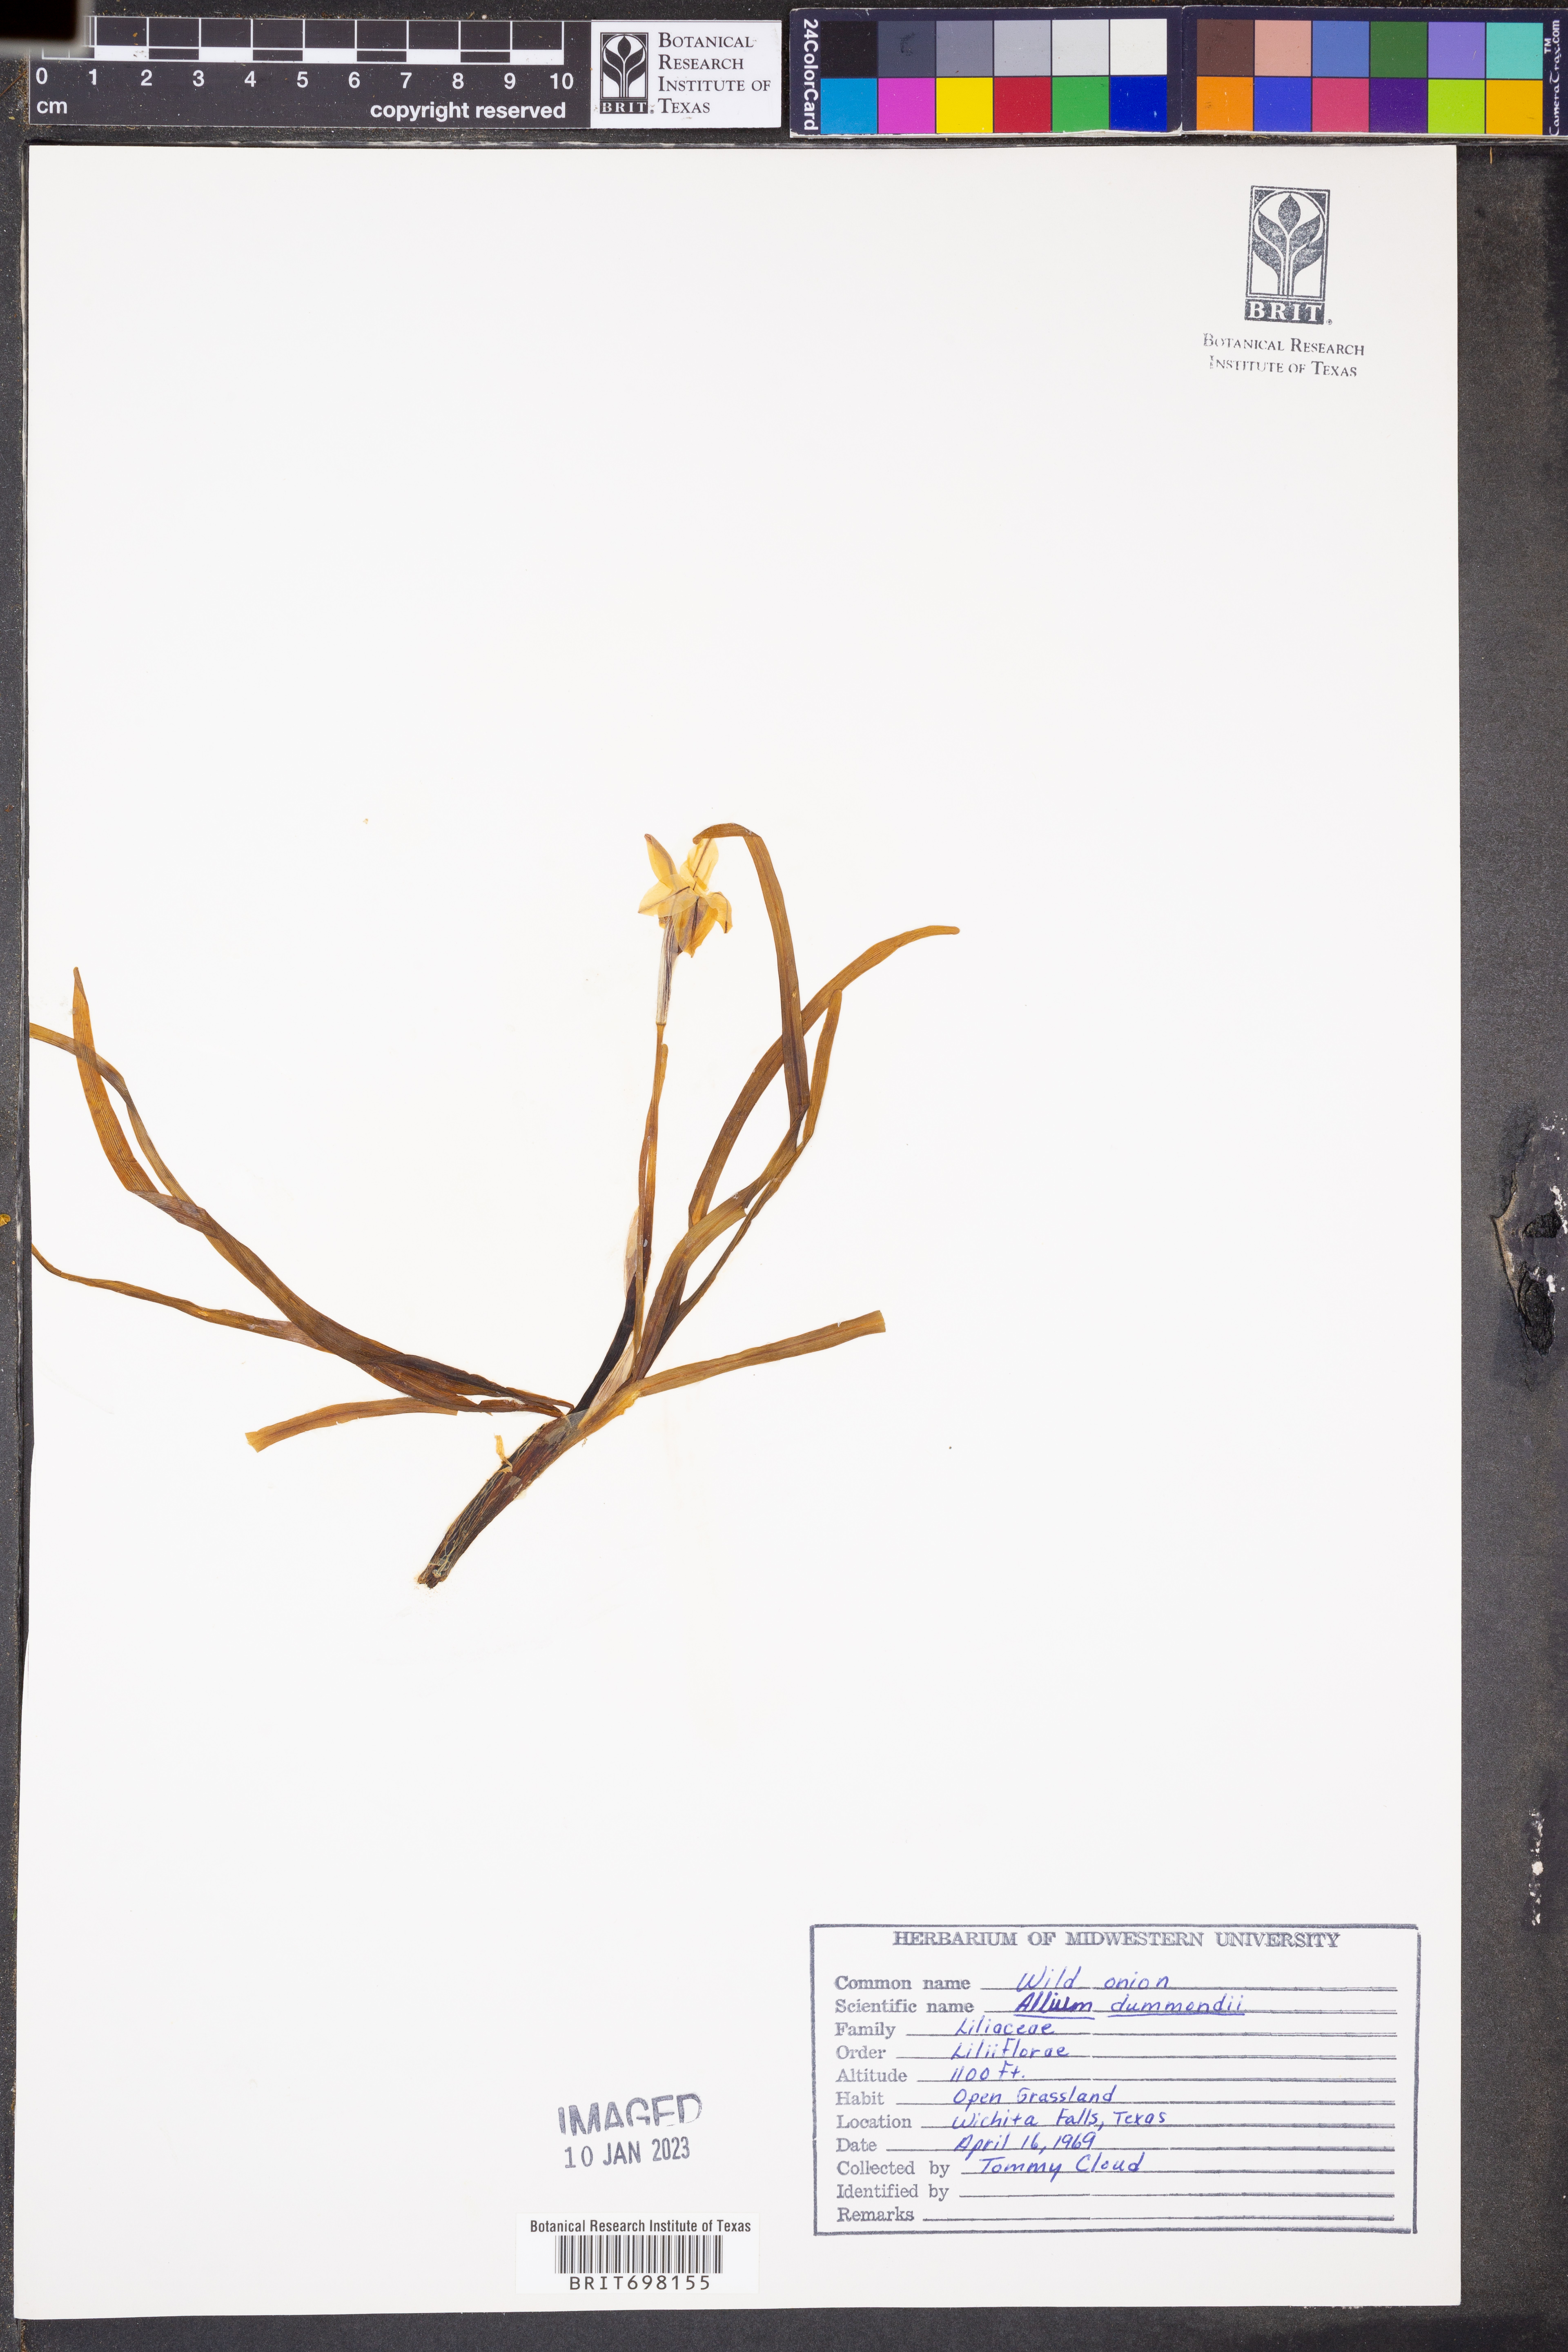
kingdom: Plantae
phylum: Tracheophyta
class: Liliopsida
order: Asparagales
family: Amaryllidaceae
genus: Allium
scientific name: Allium drummondii
